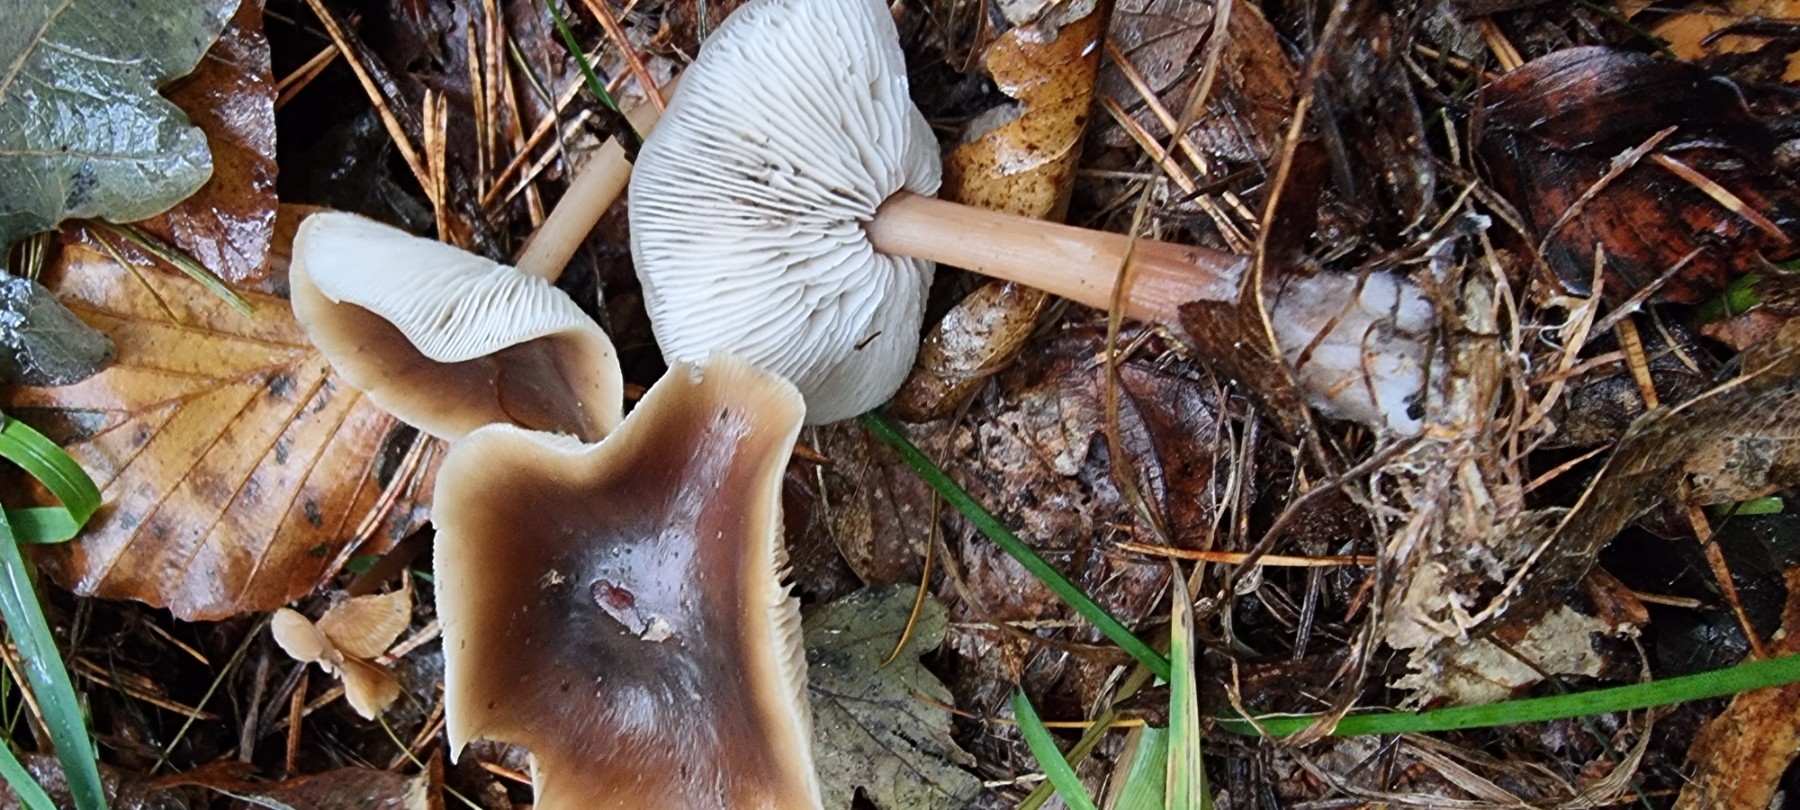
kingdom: Fungi
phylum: Basidiomycota
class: Agaricomycetes
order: Agaricales
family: Omphalotaceae
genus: Rhodocollybia
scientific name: Rhodocollybia asema
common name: horngrå fladhat
